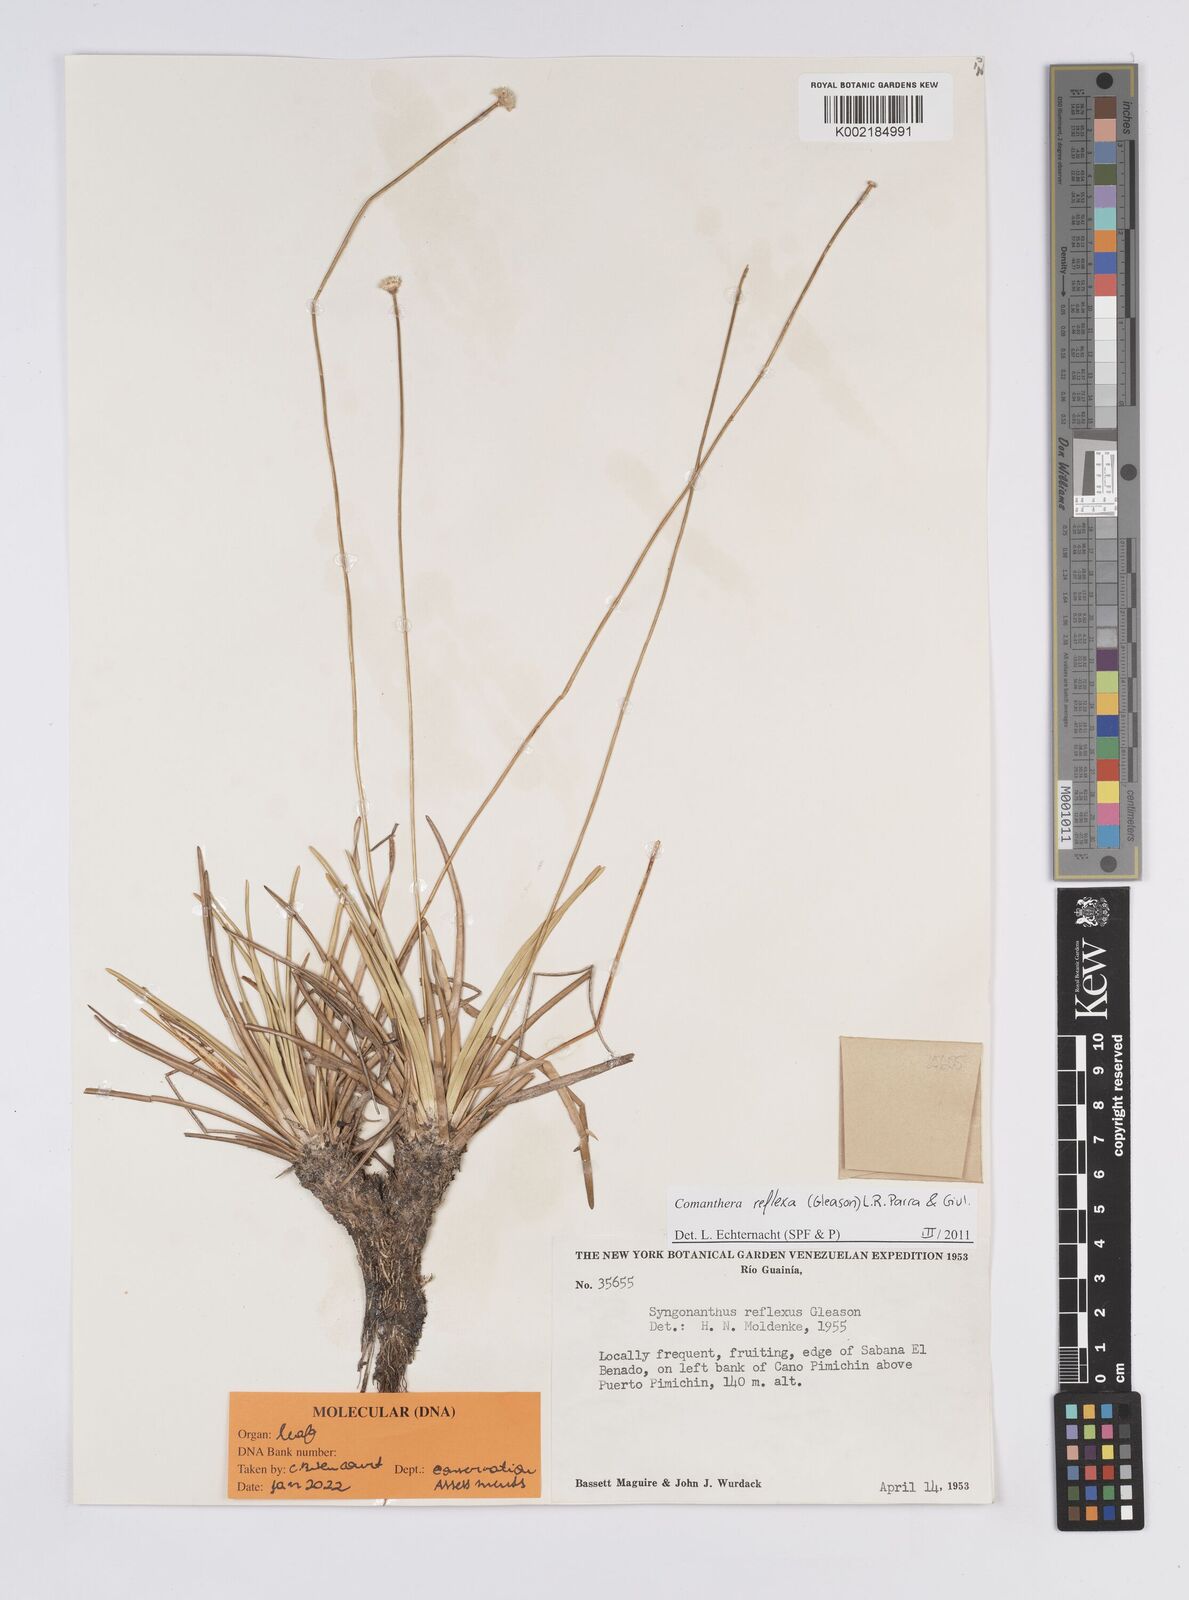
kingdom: Plantae
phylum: Tracheophyta
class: Liliopsida
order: Poales
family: Eriocaulaceae
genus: Comanthera
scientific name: Comanthera reflexa
